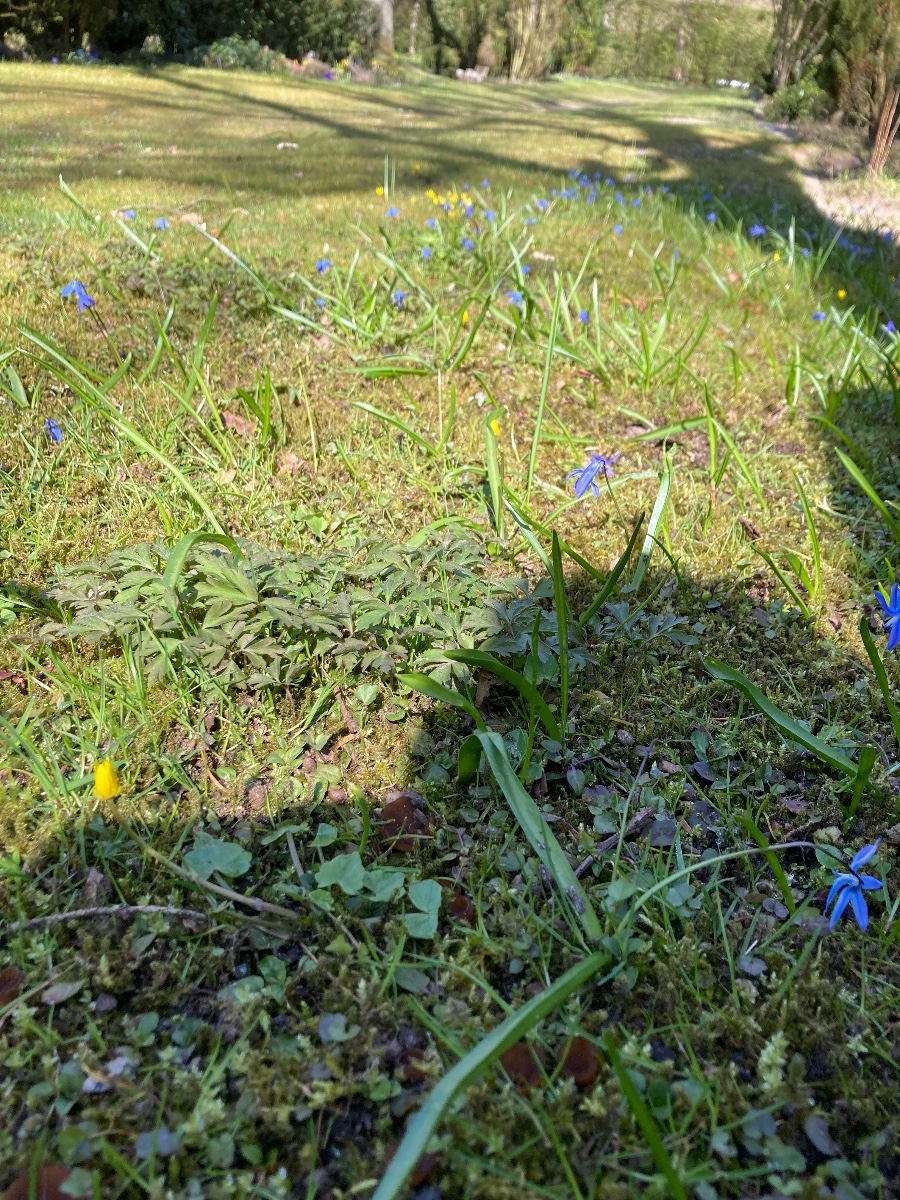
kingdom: Fungi
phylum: Ascomycota
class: Leotiomycetes
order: Helotiales
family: Sclerotiniaceae
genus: Dumontinia
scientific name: Dumontinia tuberosa
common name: anemone-knoldskive
